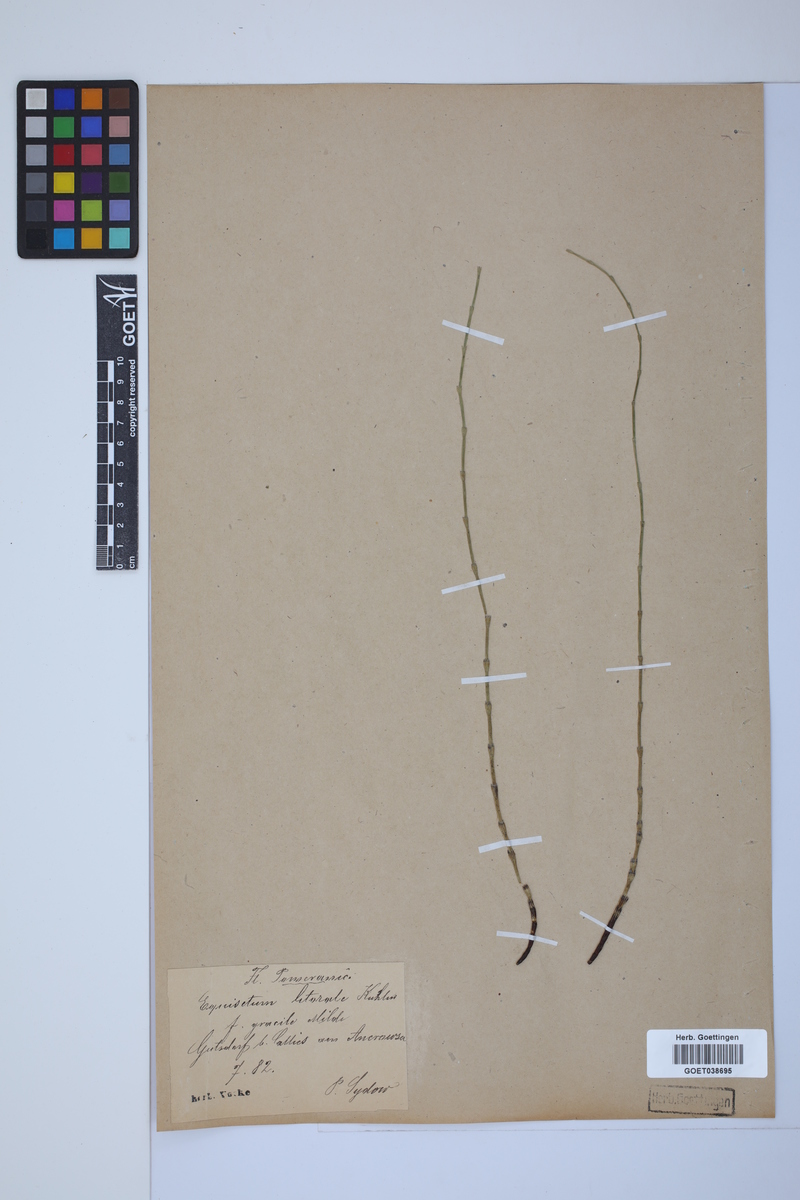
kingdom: Plantae
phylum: Tracheophyta
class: Polypodiopsida
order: Equisetales
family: Equisetaceae
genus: Equisetum
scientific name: Equisetum litorale
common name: Littoral horsetail
